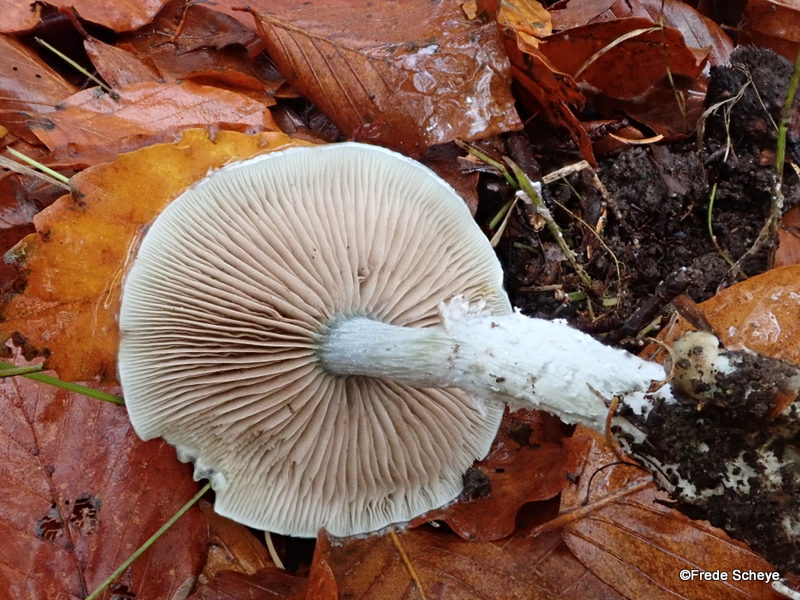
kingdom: Fungi
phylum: Basidiomycota
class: Agaricomycetes
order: Agaricales
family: Strophariaceae
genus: Stropharia
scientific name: Stropharia cyanea
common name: blågrøn bredblad
